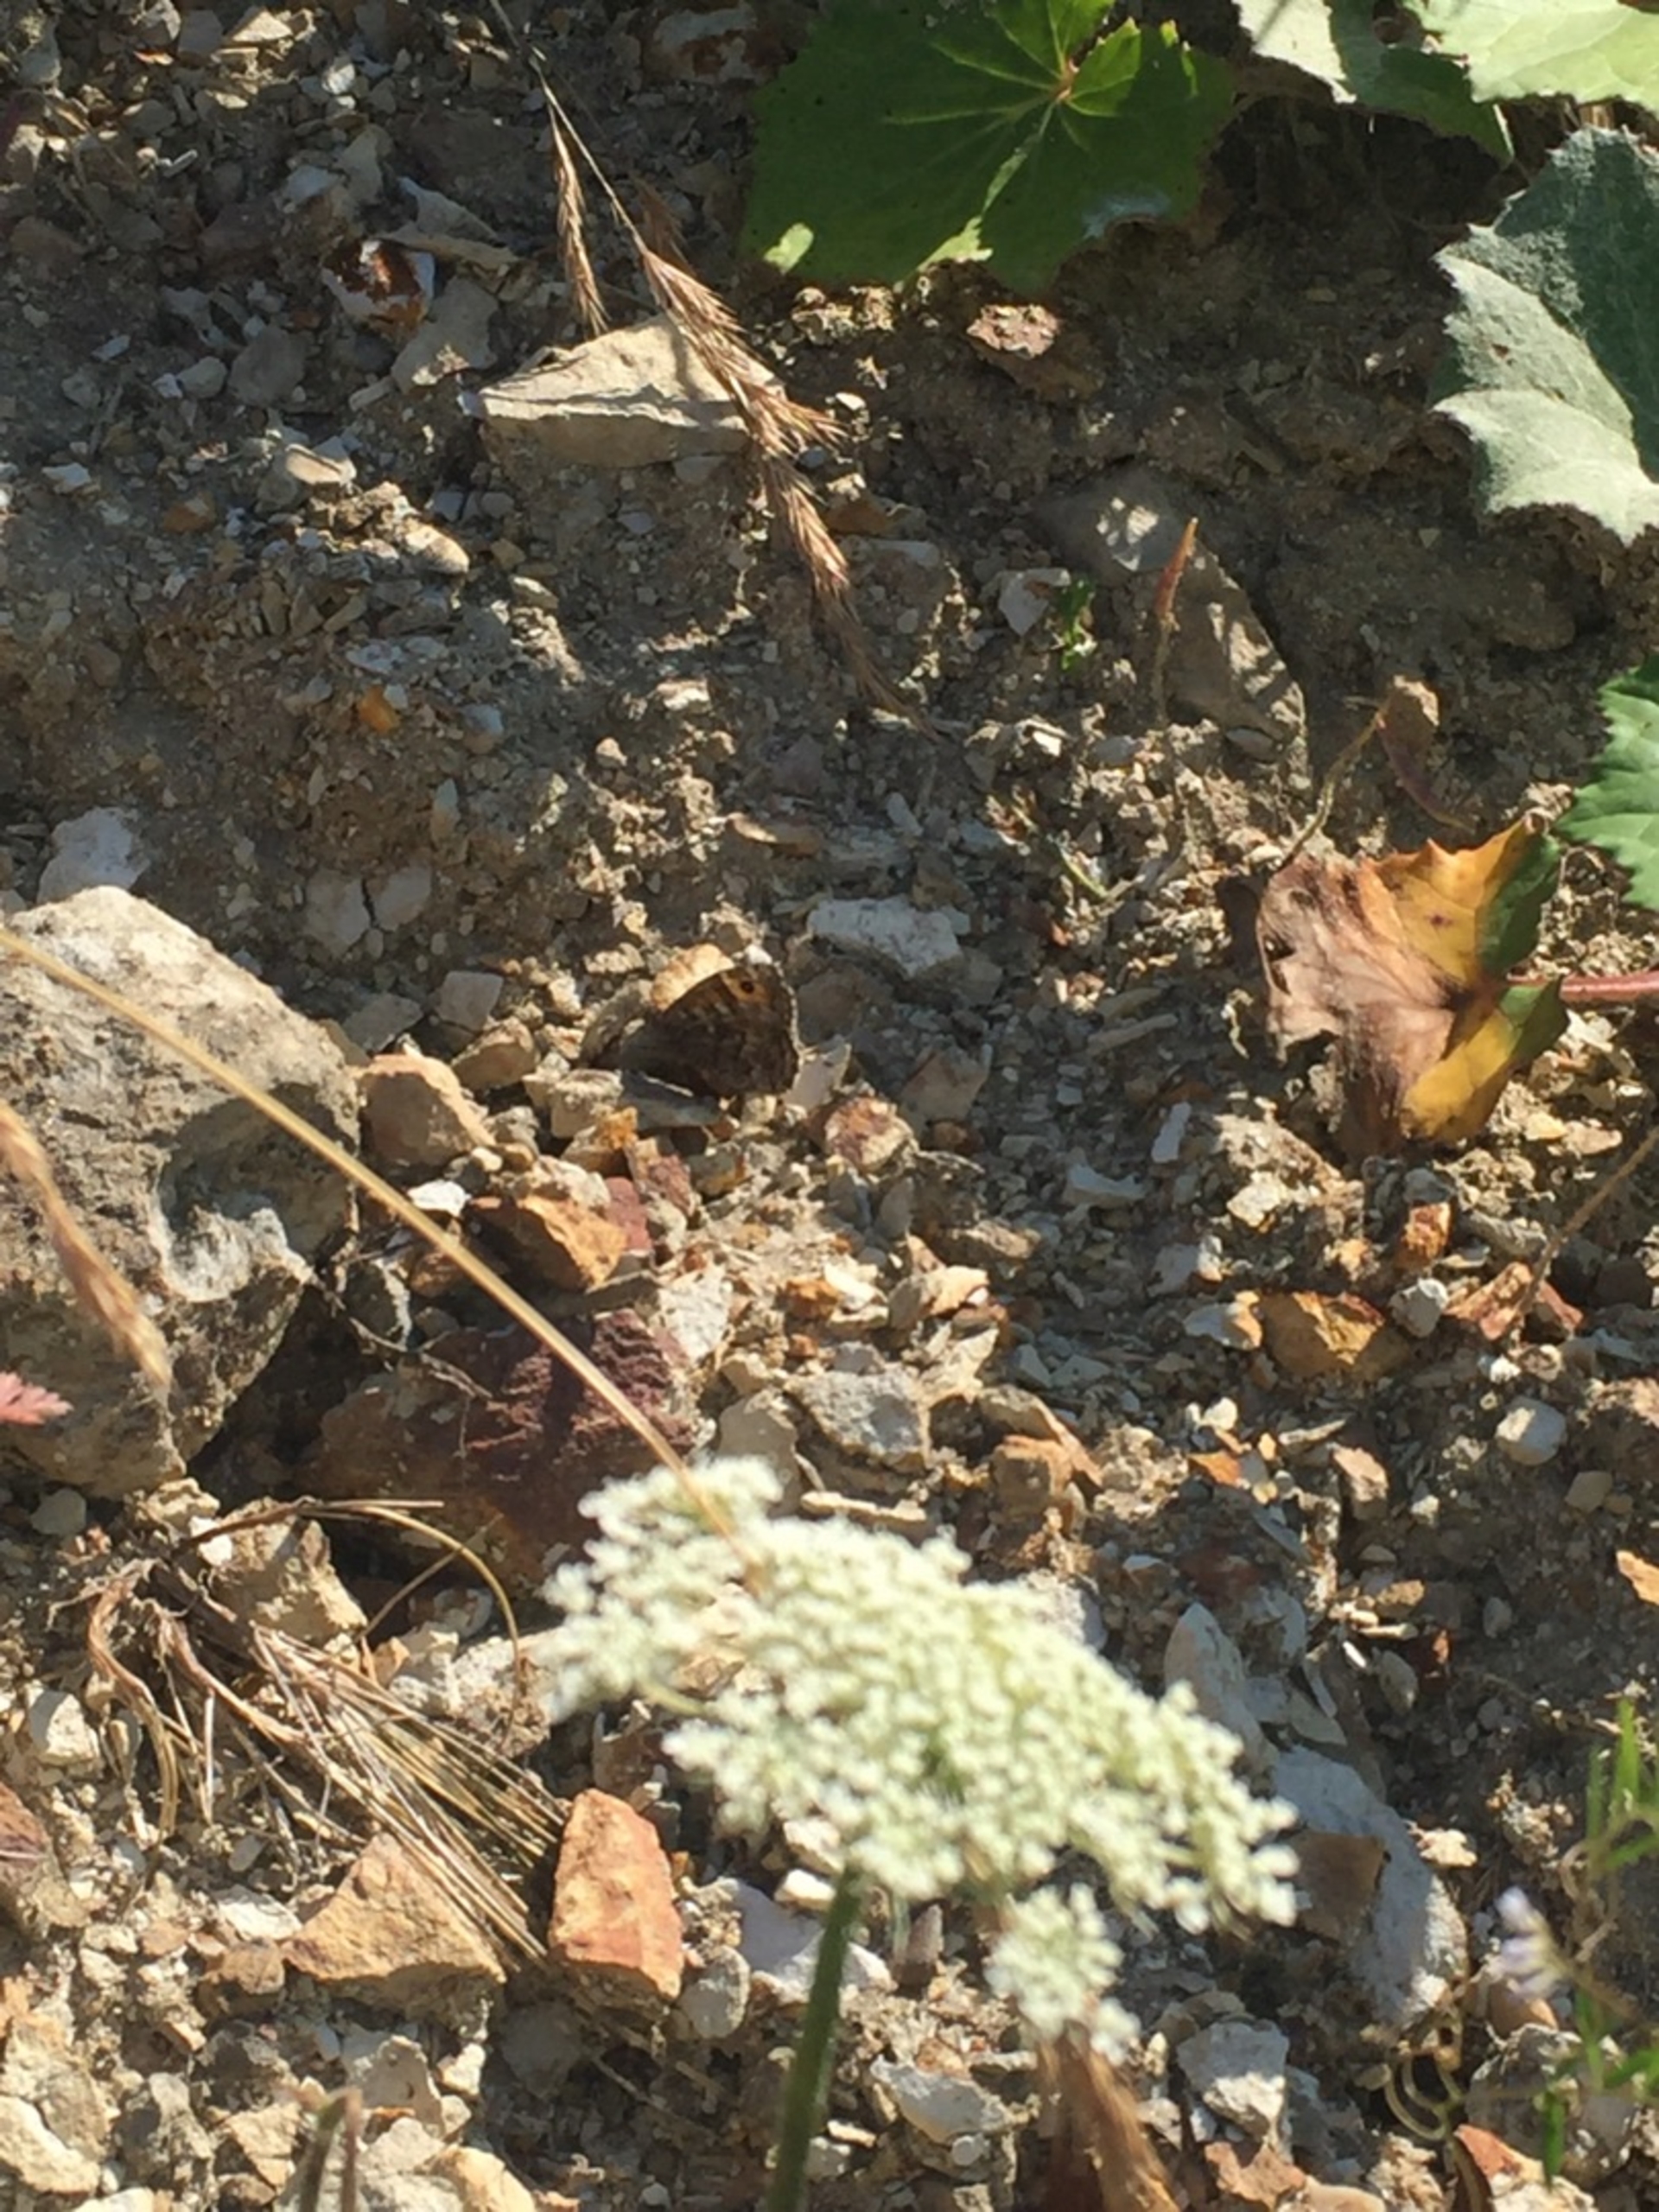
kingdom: Animalia
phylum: Arthropoda
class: Insecta
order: Lepidoptera
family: Nymphalidae
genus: Hipparchia
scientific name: Hipparchia semele
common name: Sandrandøje
